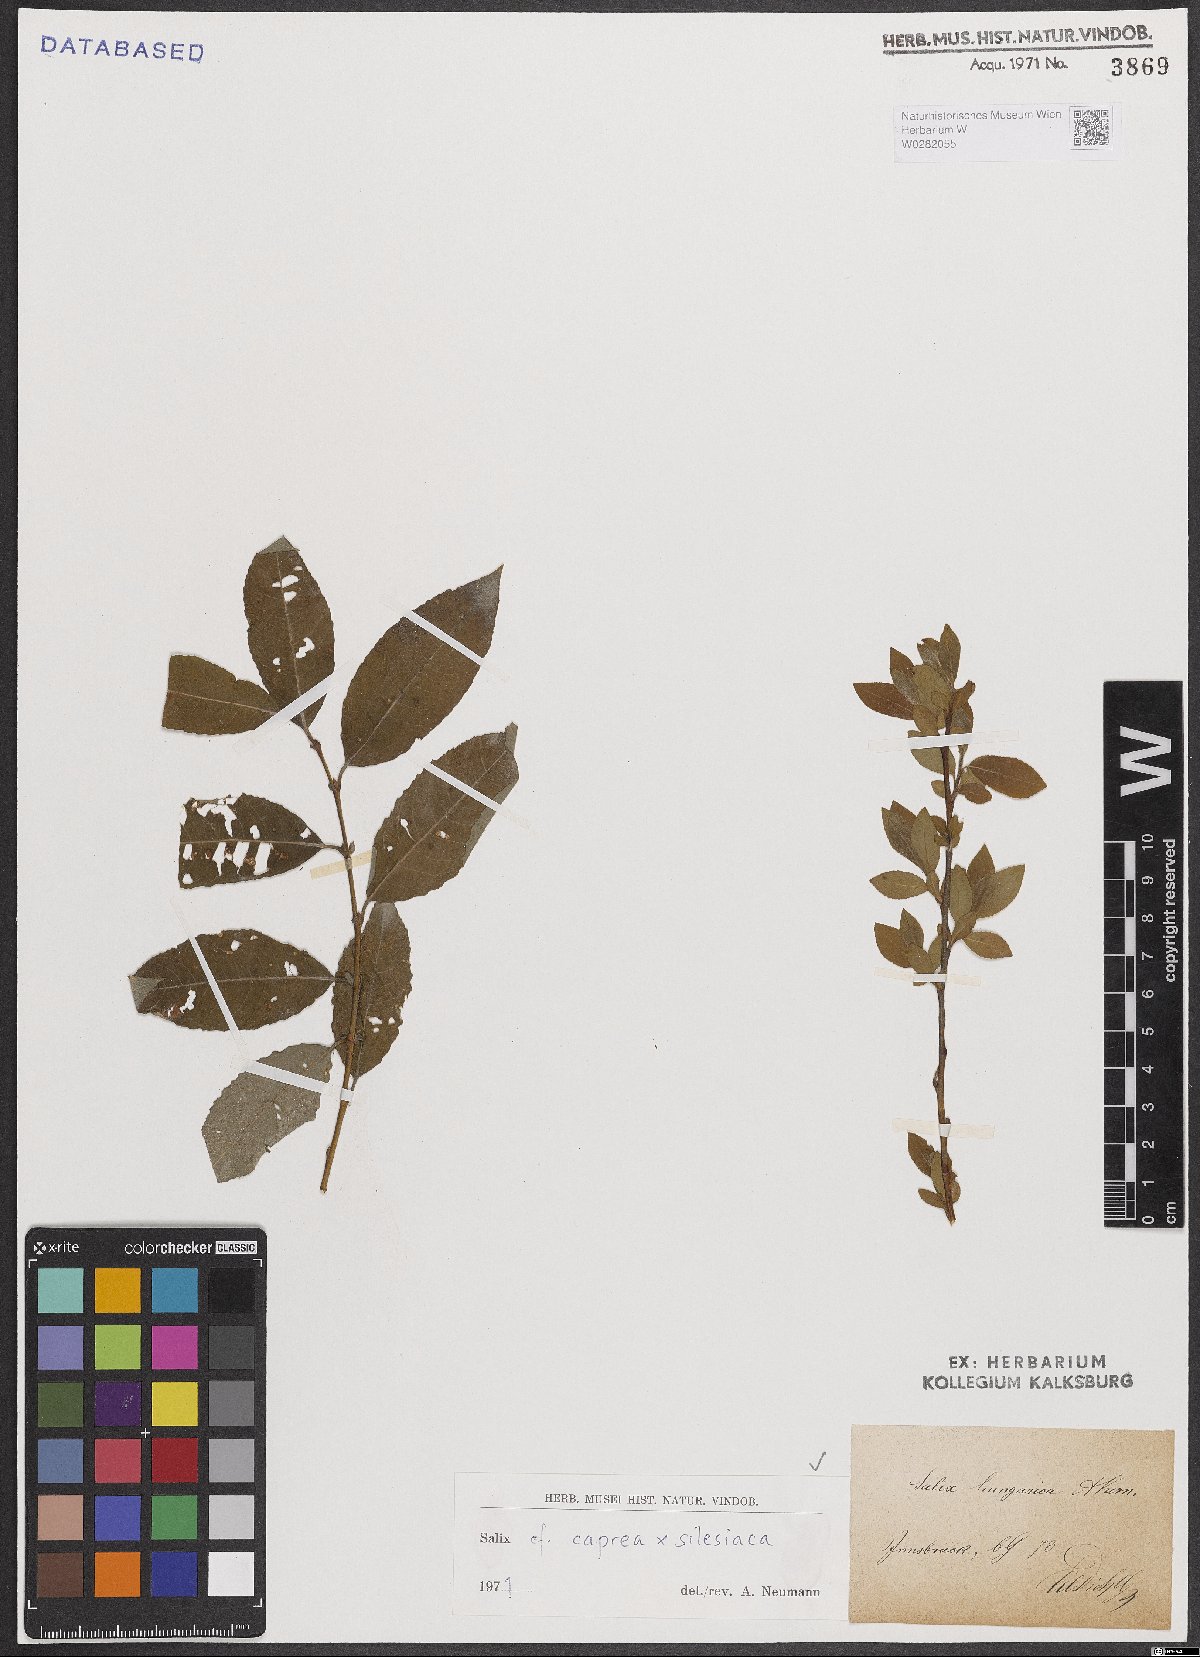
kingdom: Plantae
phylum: Tracheophyta
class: Magnoliopsida
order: Malpighiales
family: Salicaceae
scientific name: Salicaceae
